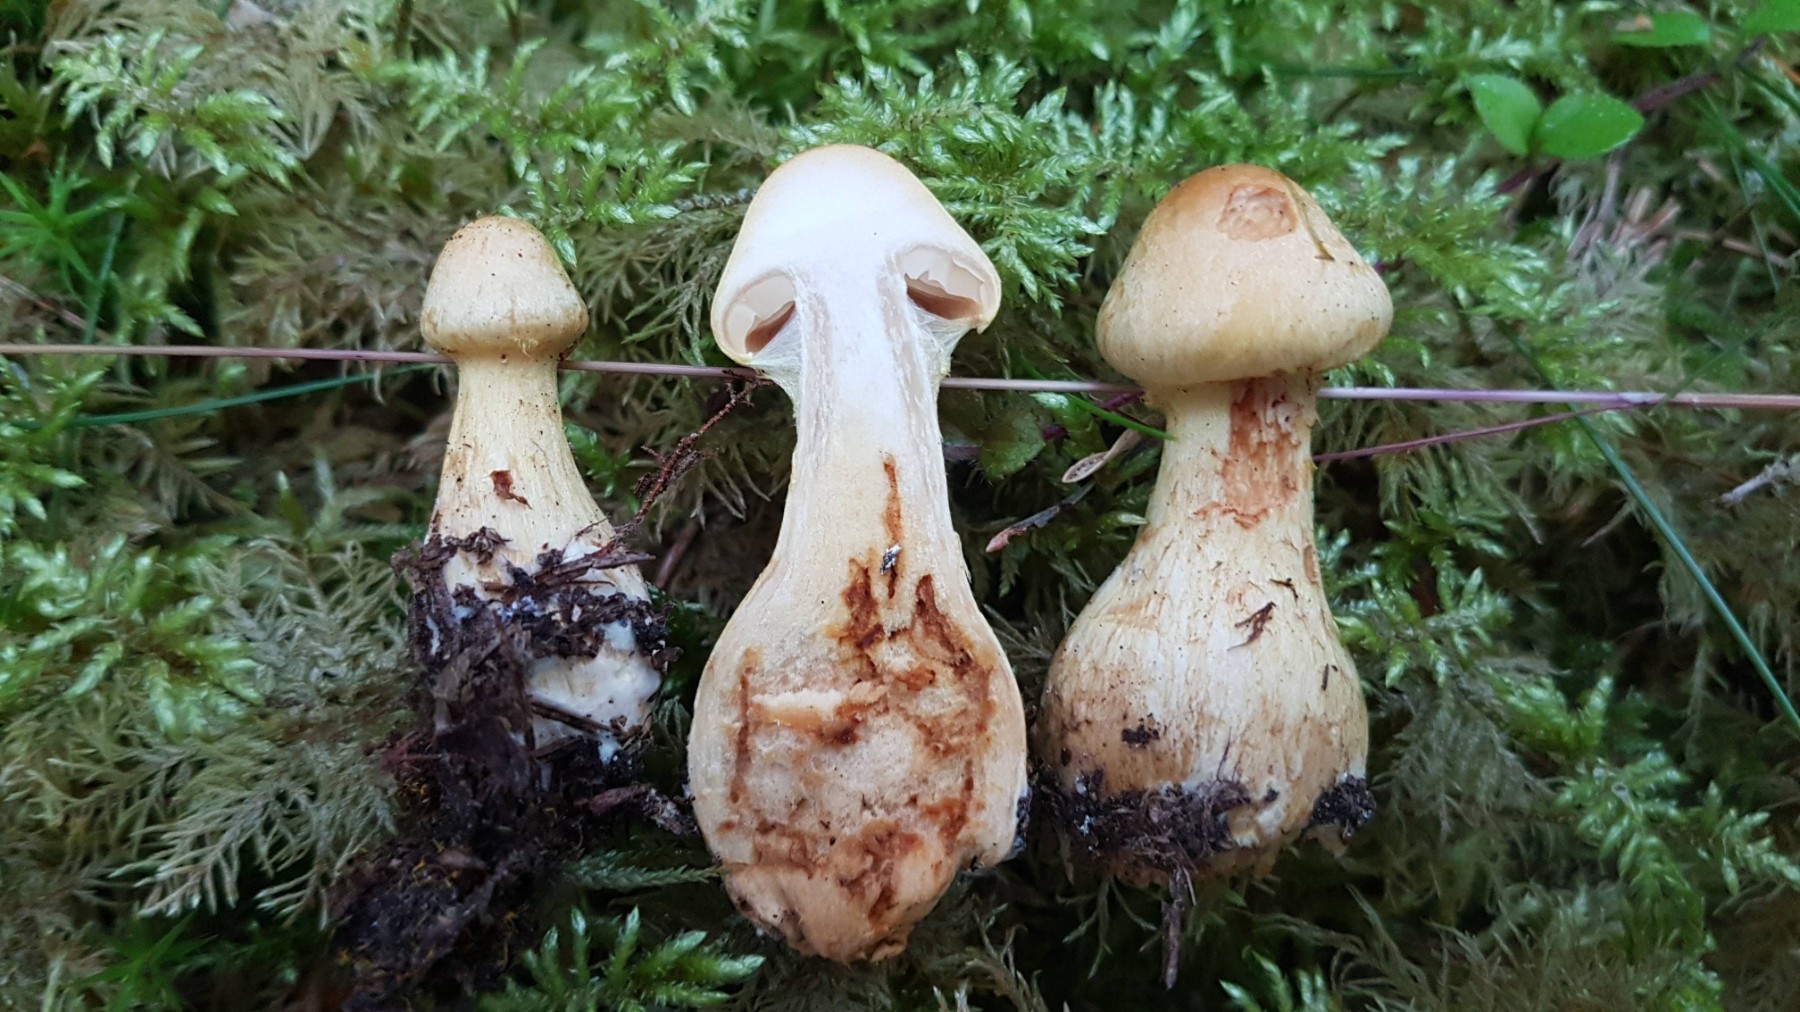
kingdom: Fungi
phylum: Basidiomycota
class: Agaricomycetes
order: Agaricales
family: Cortinariaceae
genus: Cortinarius
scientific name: Cortinarius citrinofulvescens
